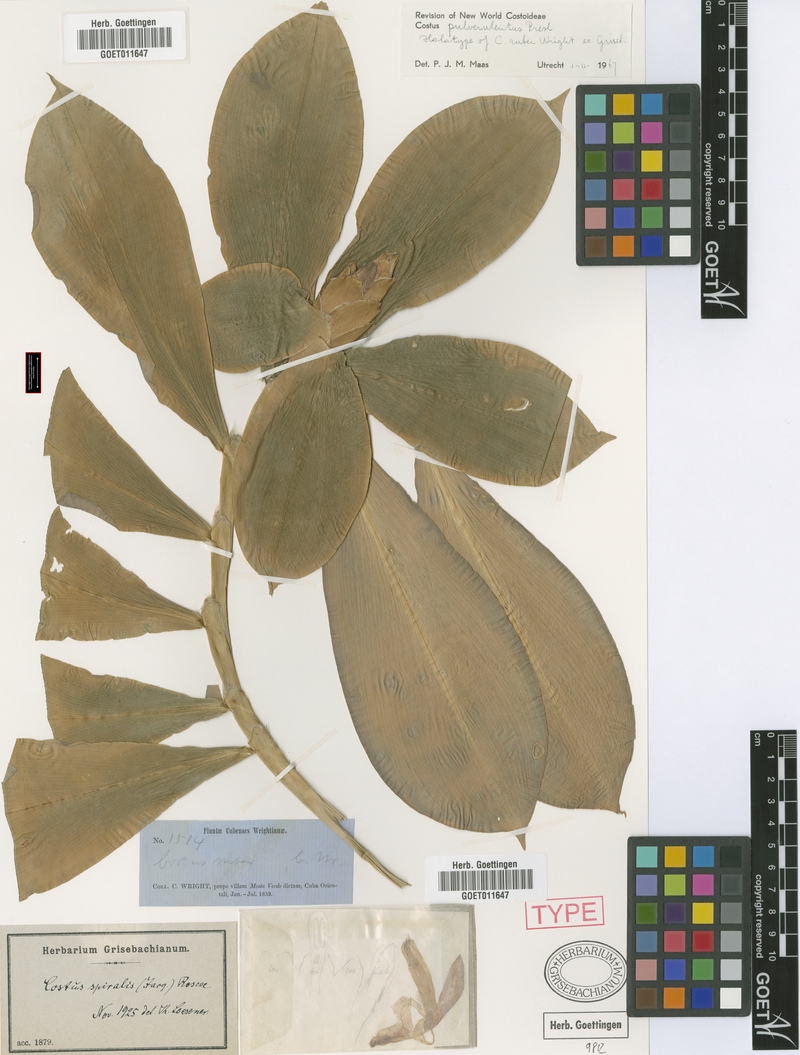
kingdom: Plantae
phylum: Tracheophyta
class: Liliopsida
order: Zingiberales
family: Costaceae
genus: Costus
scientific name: Costus pulverulentus
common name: Spiral ginger
